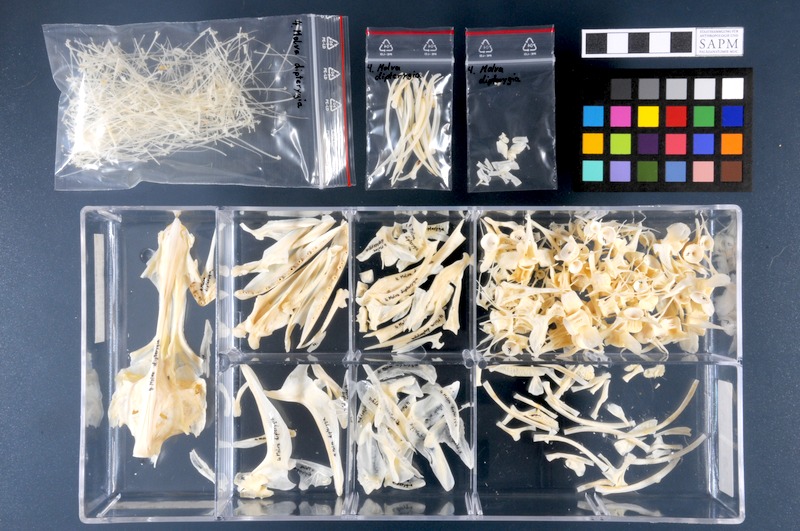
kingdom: Animalia
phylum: Chordata
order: Gadiformes
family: Lotidae
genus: Molva
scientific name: Molva dypterygia
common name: Blue ling
